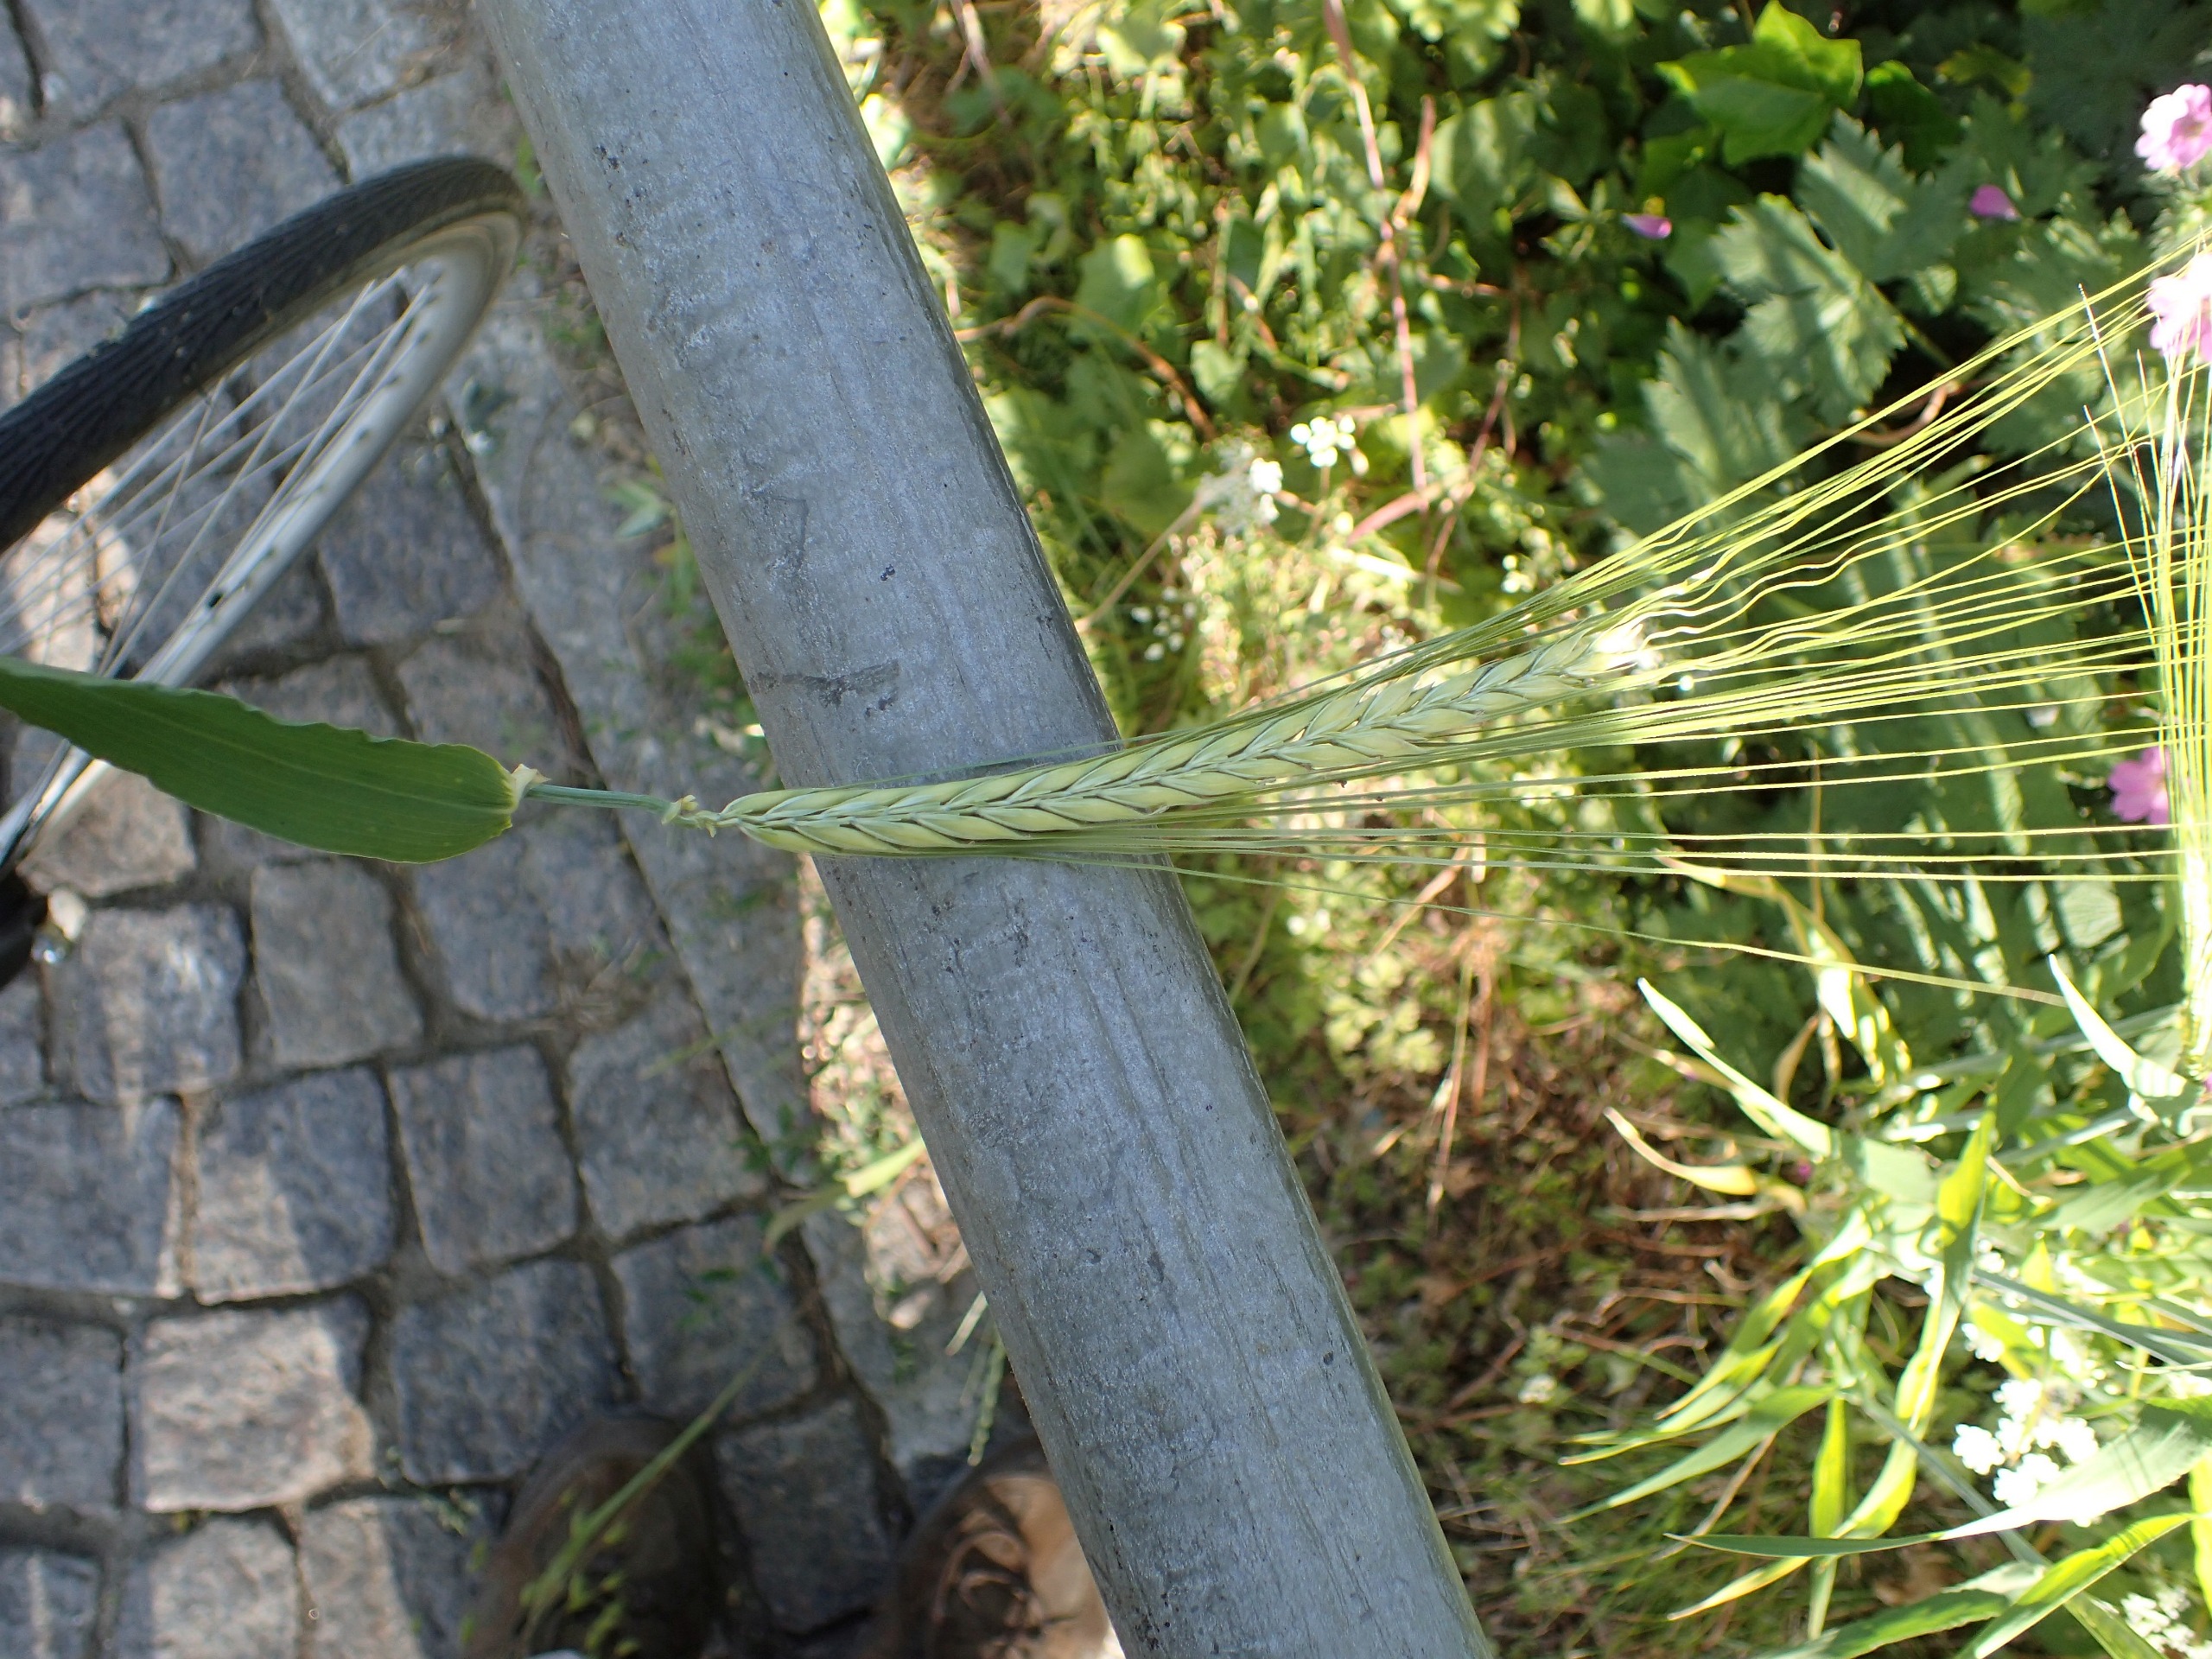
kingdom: Plantae
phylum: Tracheophyta
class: Liliopsida
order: Poales
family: Poaceae
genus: Hordeum
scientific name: Hordeum vulgare
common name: Almindelig byg
